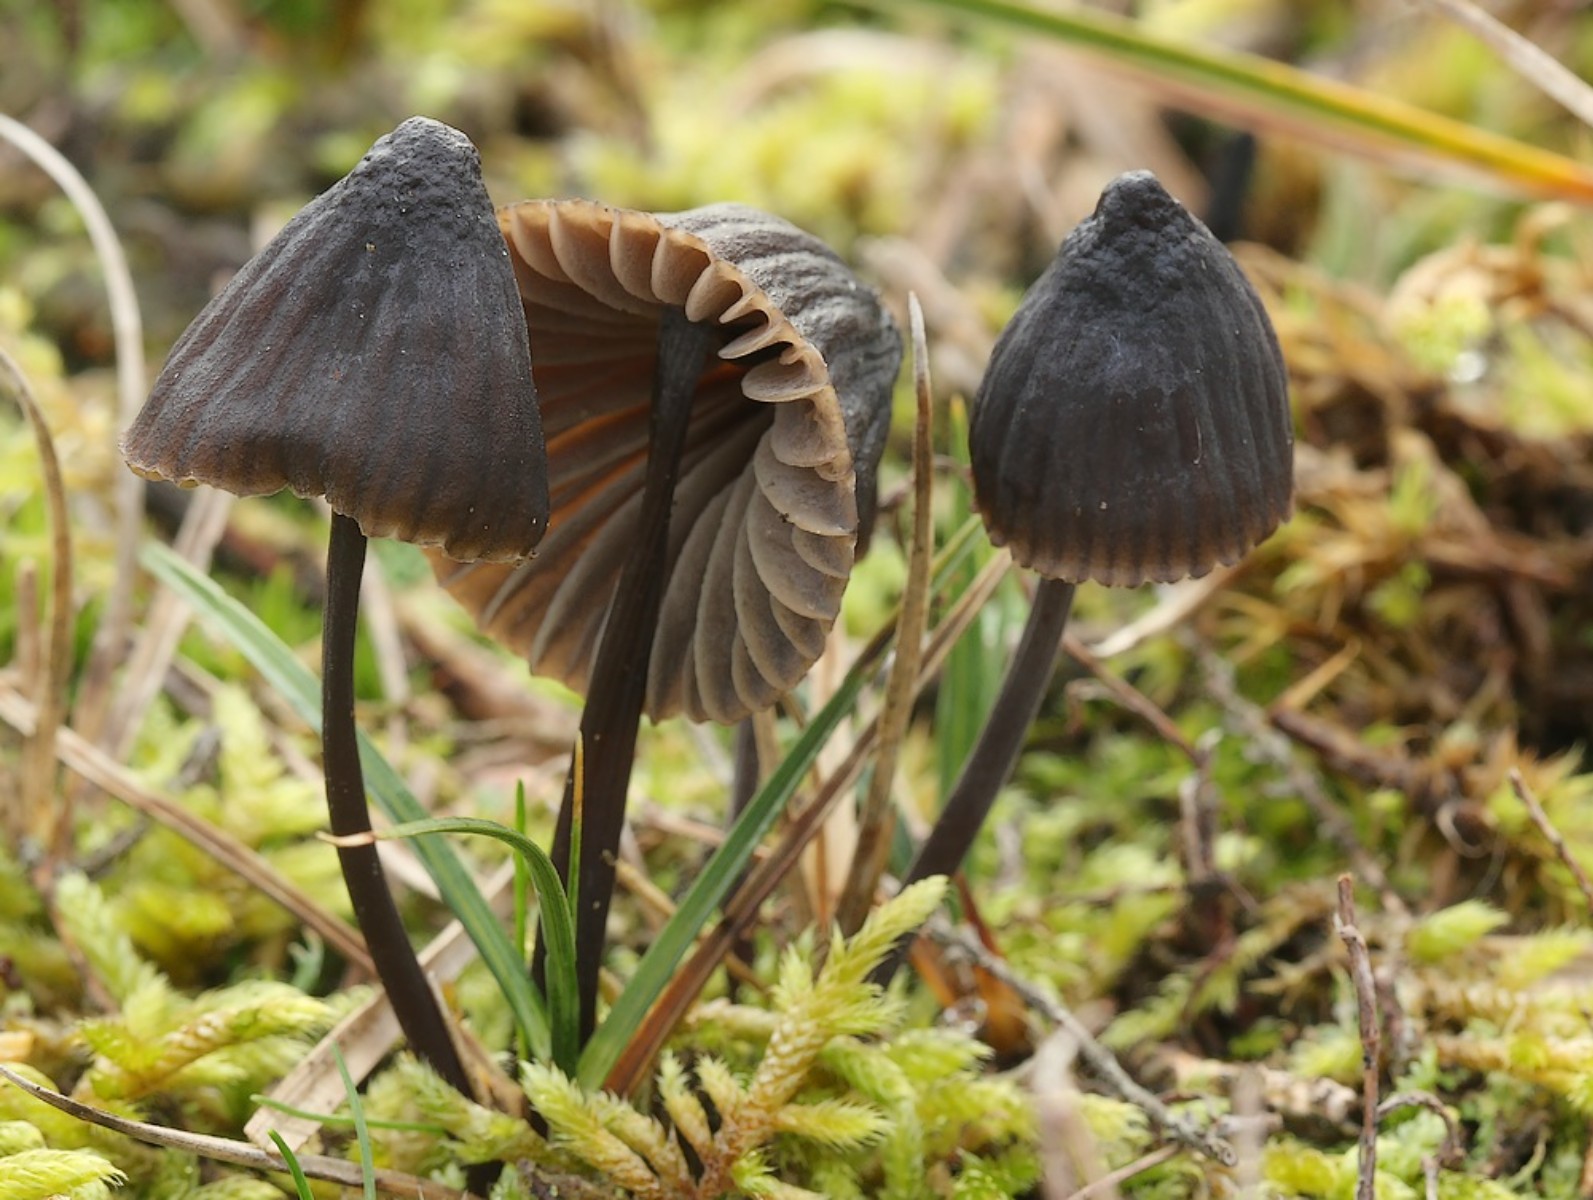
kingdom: Fungi
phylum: Basidiomycota
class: Agaricomycetes
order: Agaricales
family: Mycenaceae
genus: Mycena
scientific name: Mycena galopus
